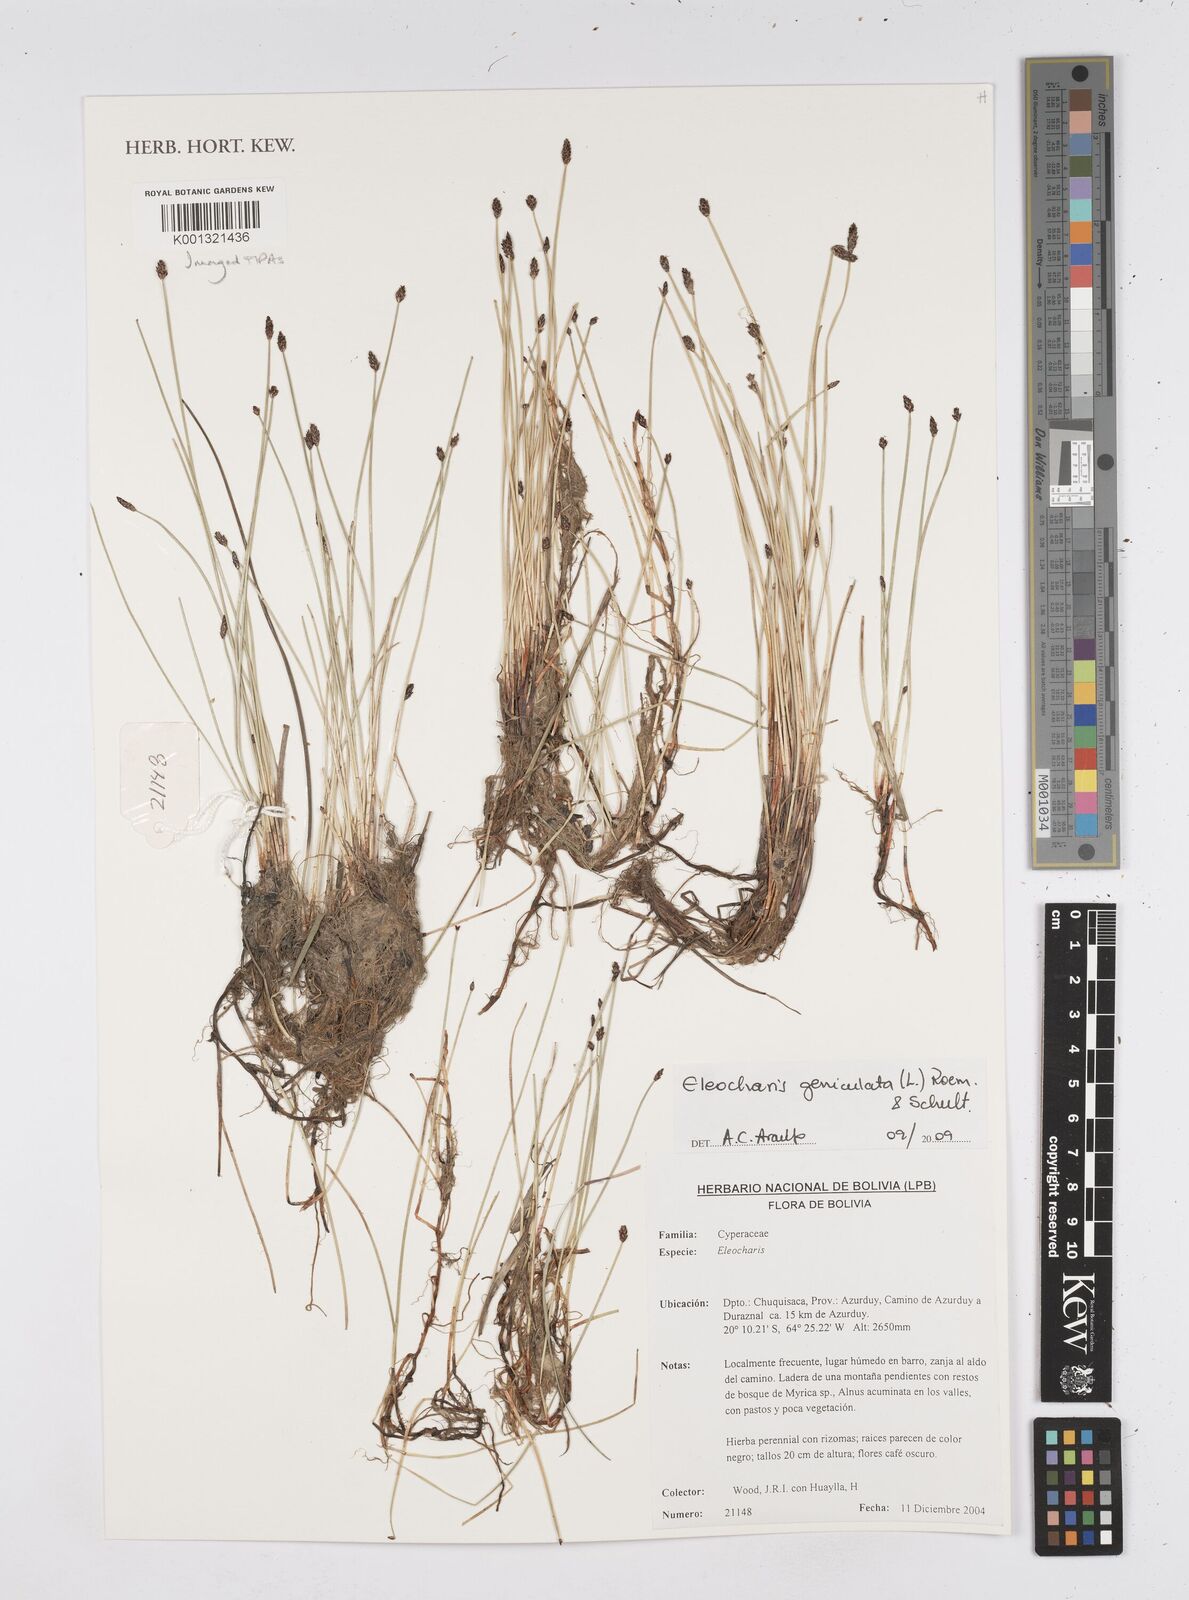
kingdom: Plantae
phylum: Tracheophyta
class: Liliopsida
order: Poales
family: Cyperaceae
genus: Eleocharis
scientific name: Eleocharis geniculata
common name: Canada spikesedge
